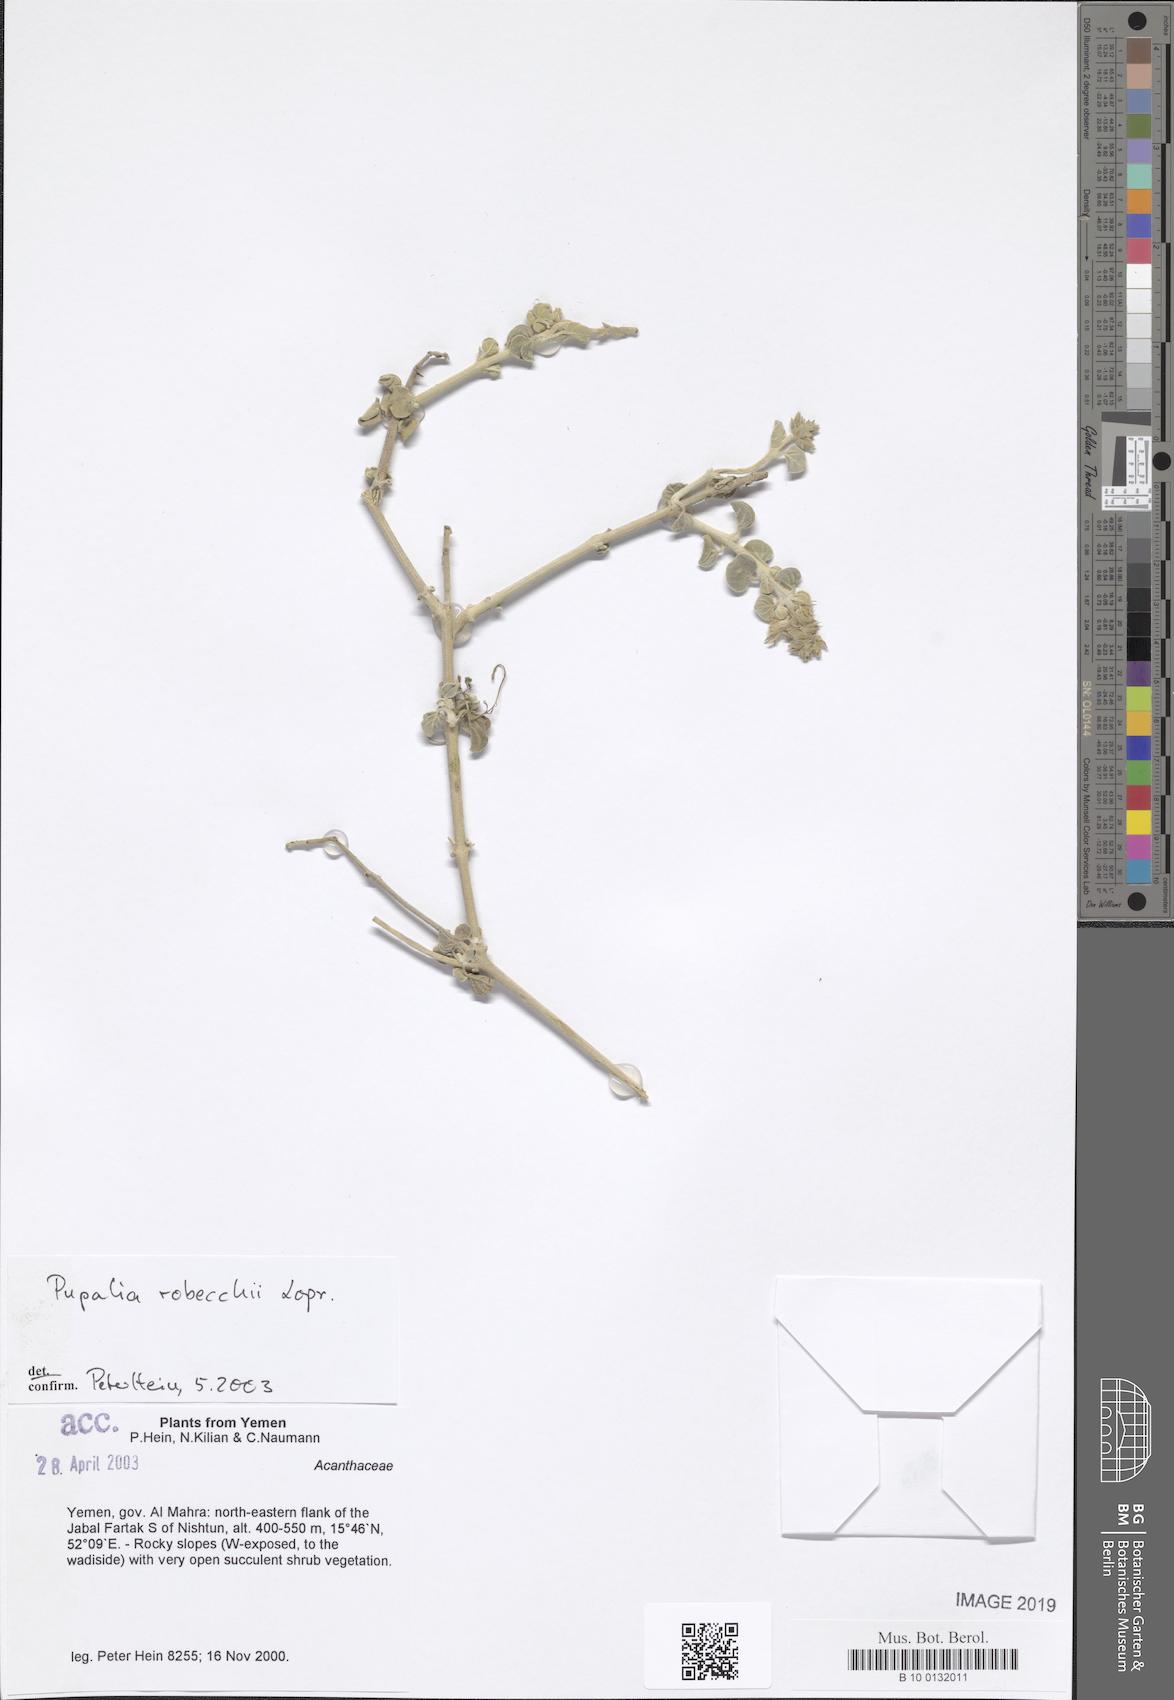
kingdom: Plantae
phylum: Tracheophyta
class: Magnoliopsida
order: Caryophyllales
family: Amaranthaceae
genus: Pupalia
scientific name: Pupalia robecchii
